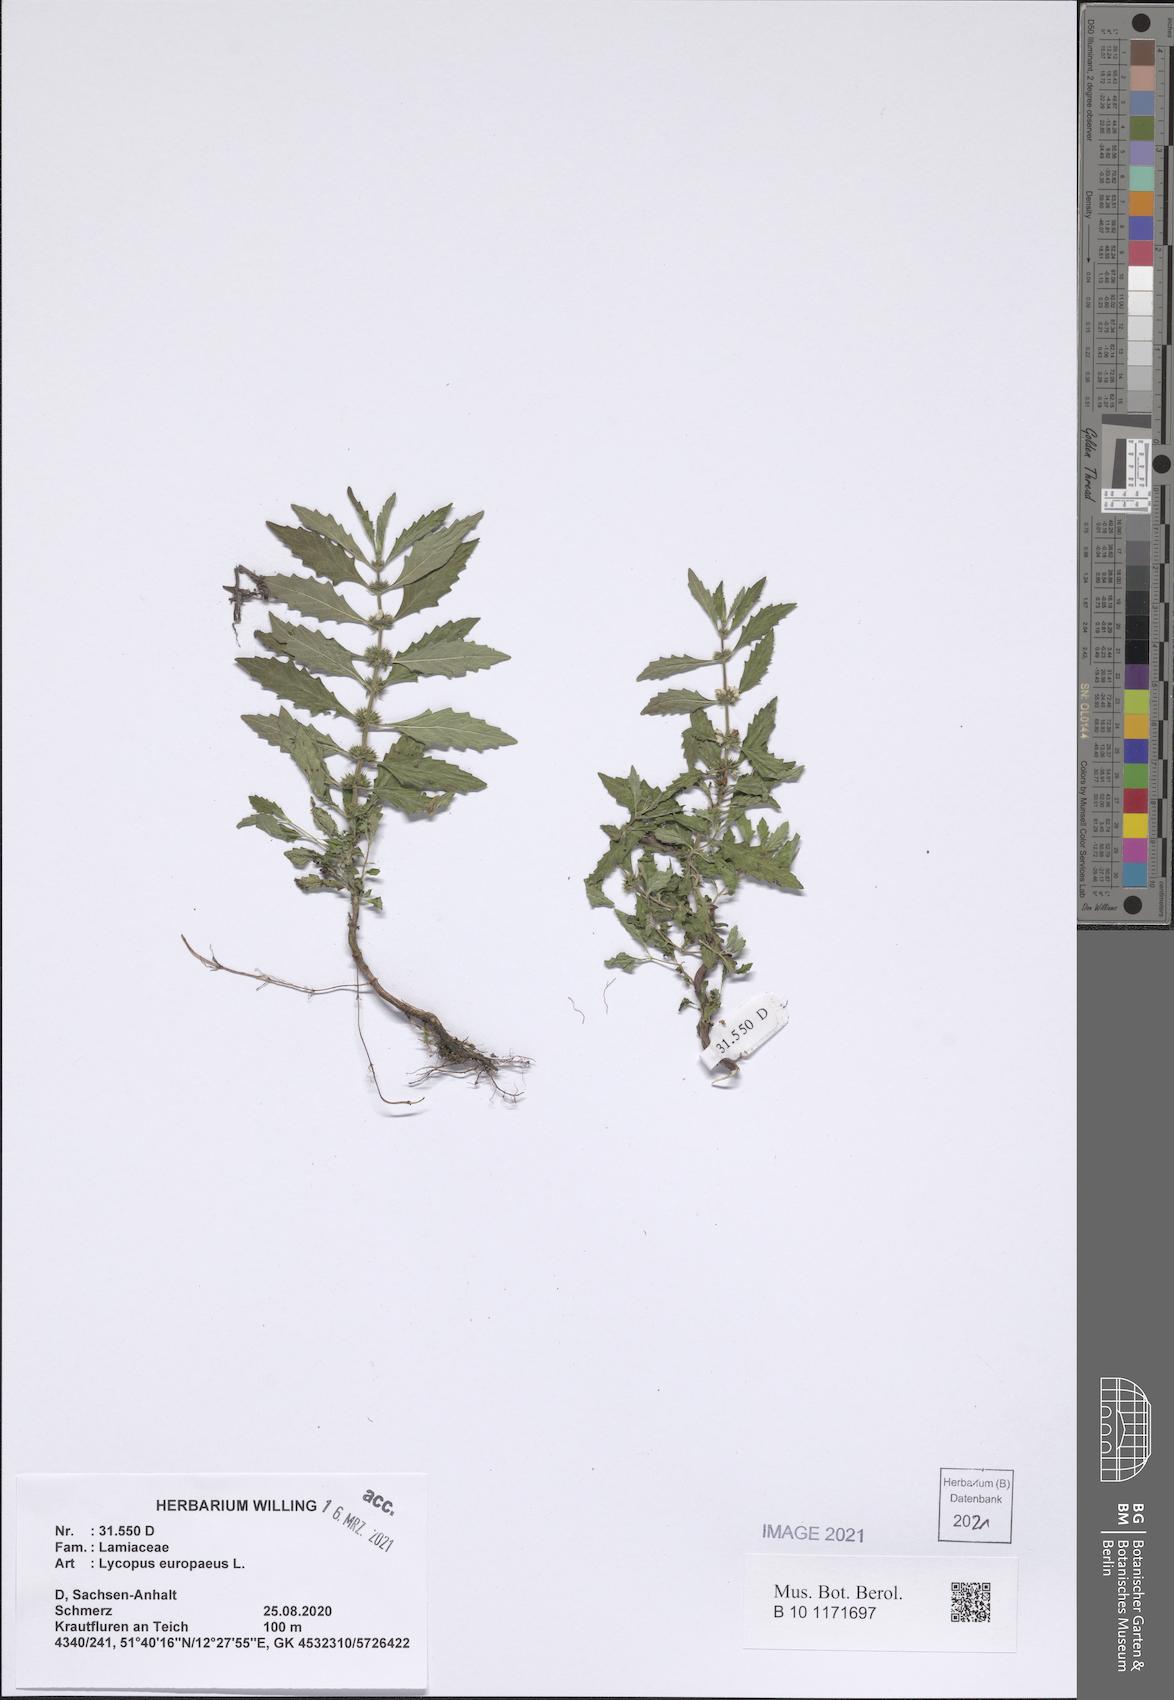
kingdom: Plantae
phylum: Tracheophyta
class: Magnoliopsida
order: Lamiales
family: Lamiaceae
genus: Lycopus
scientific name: Lycopus europaeus
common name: European bugleweed
